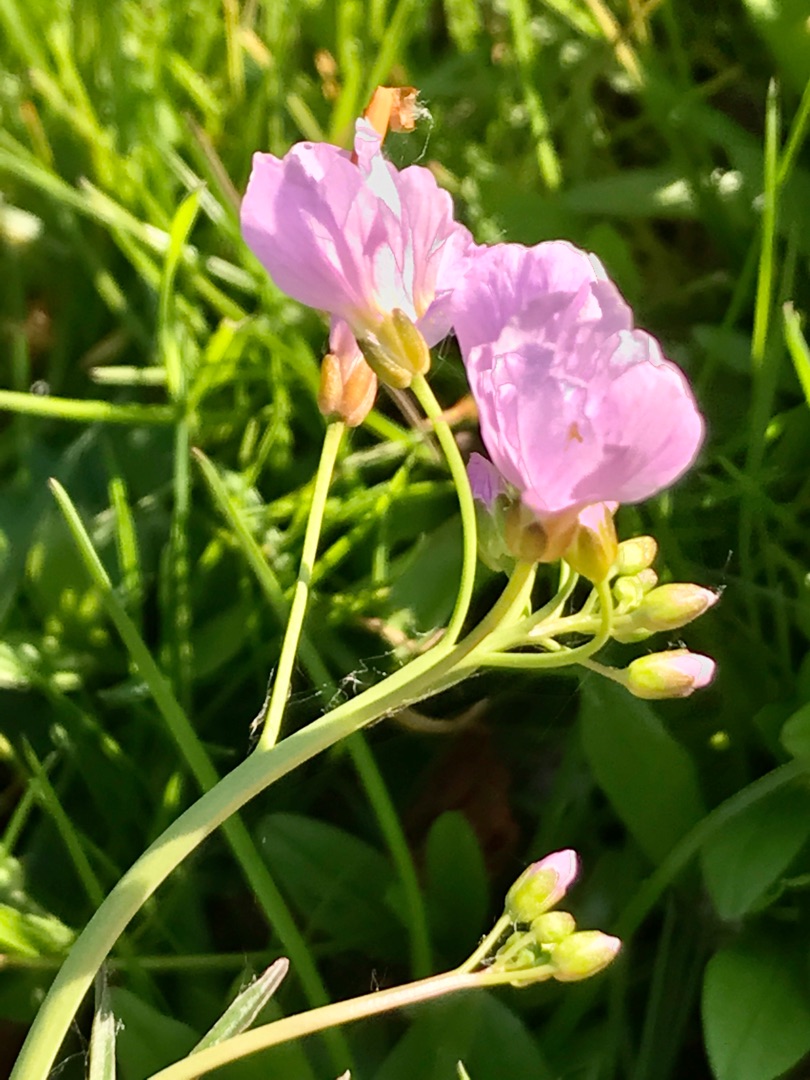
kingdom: Plantae
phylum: Tracheophyta
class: Magnoliopsida
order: Brassicales
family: Brassicaceae
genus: Cardamine
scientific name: Cardamine pratensis
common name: Engkarse
